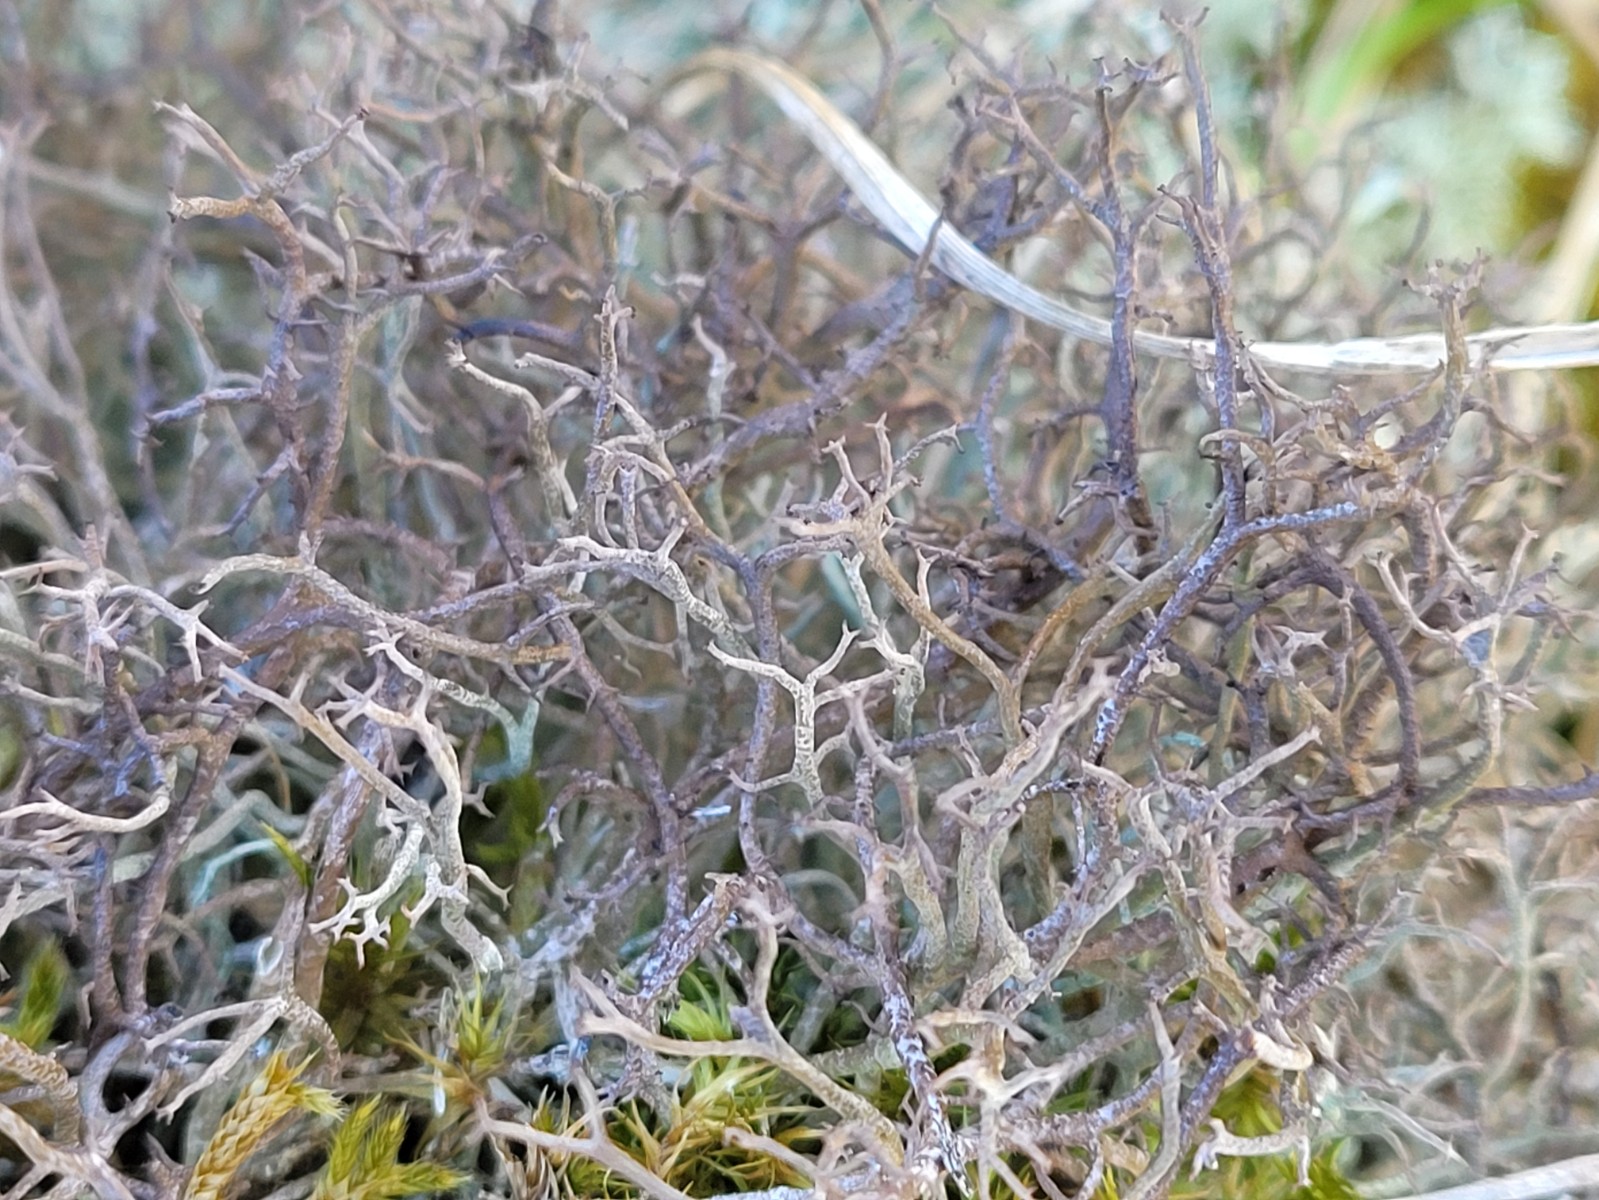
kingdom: Fungi
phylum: Ascomycota
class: Lecanoromycetes
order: Lecanorales
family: Cladoniaceae
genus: Cladonia
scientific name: Cladonia furcata
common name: kløftet bægerlav
